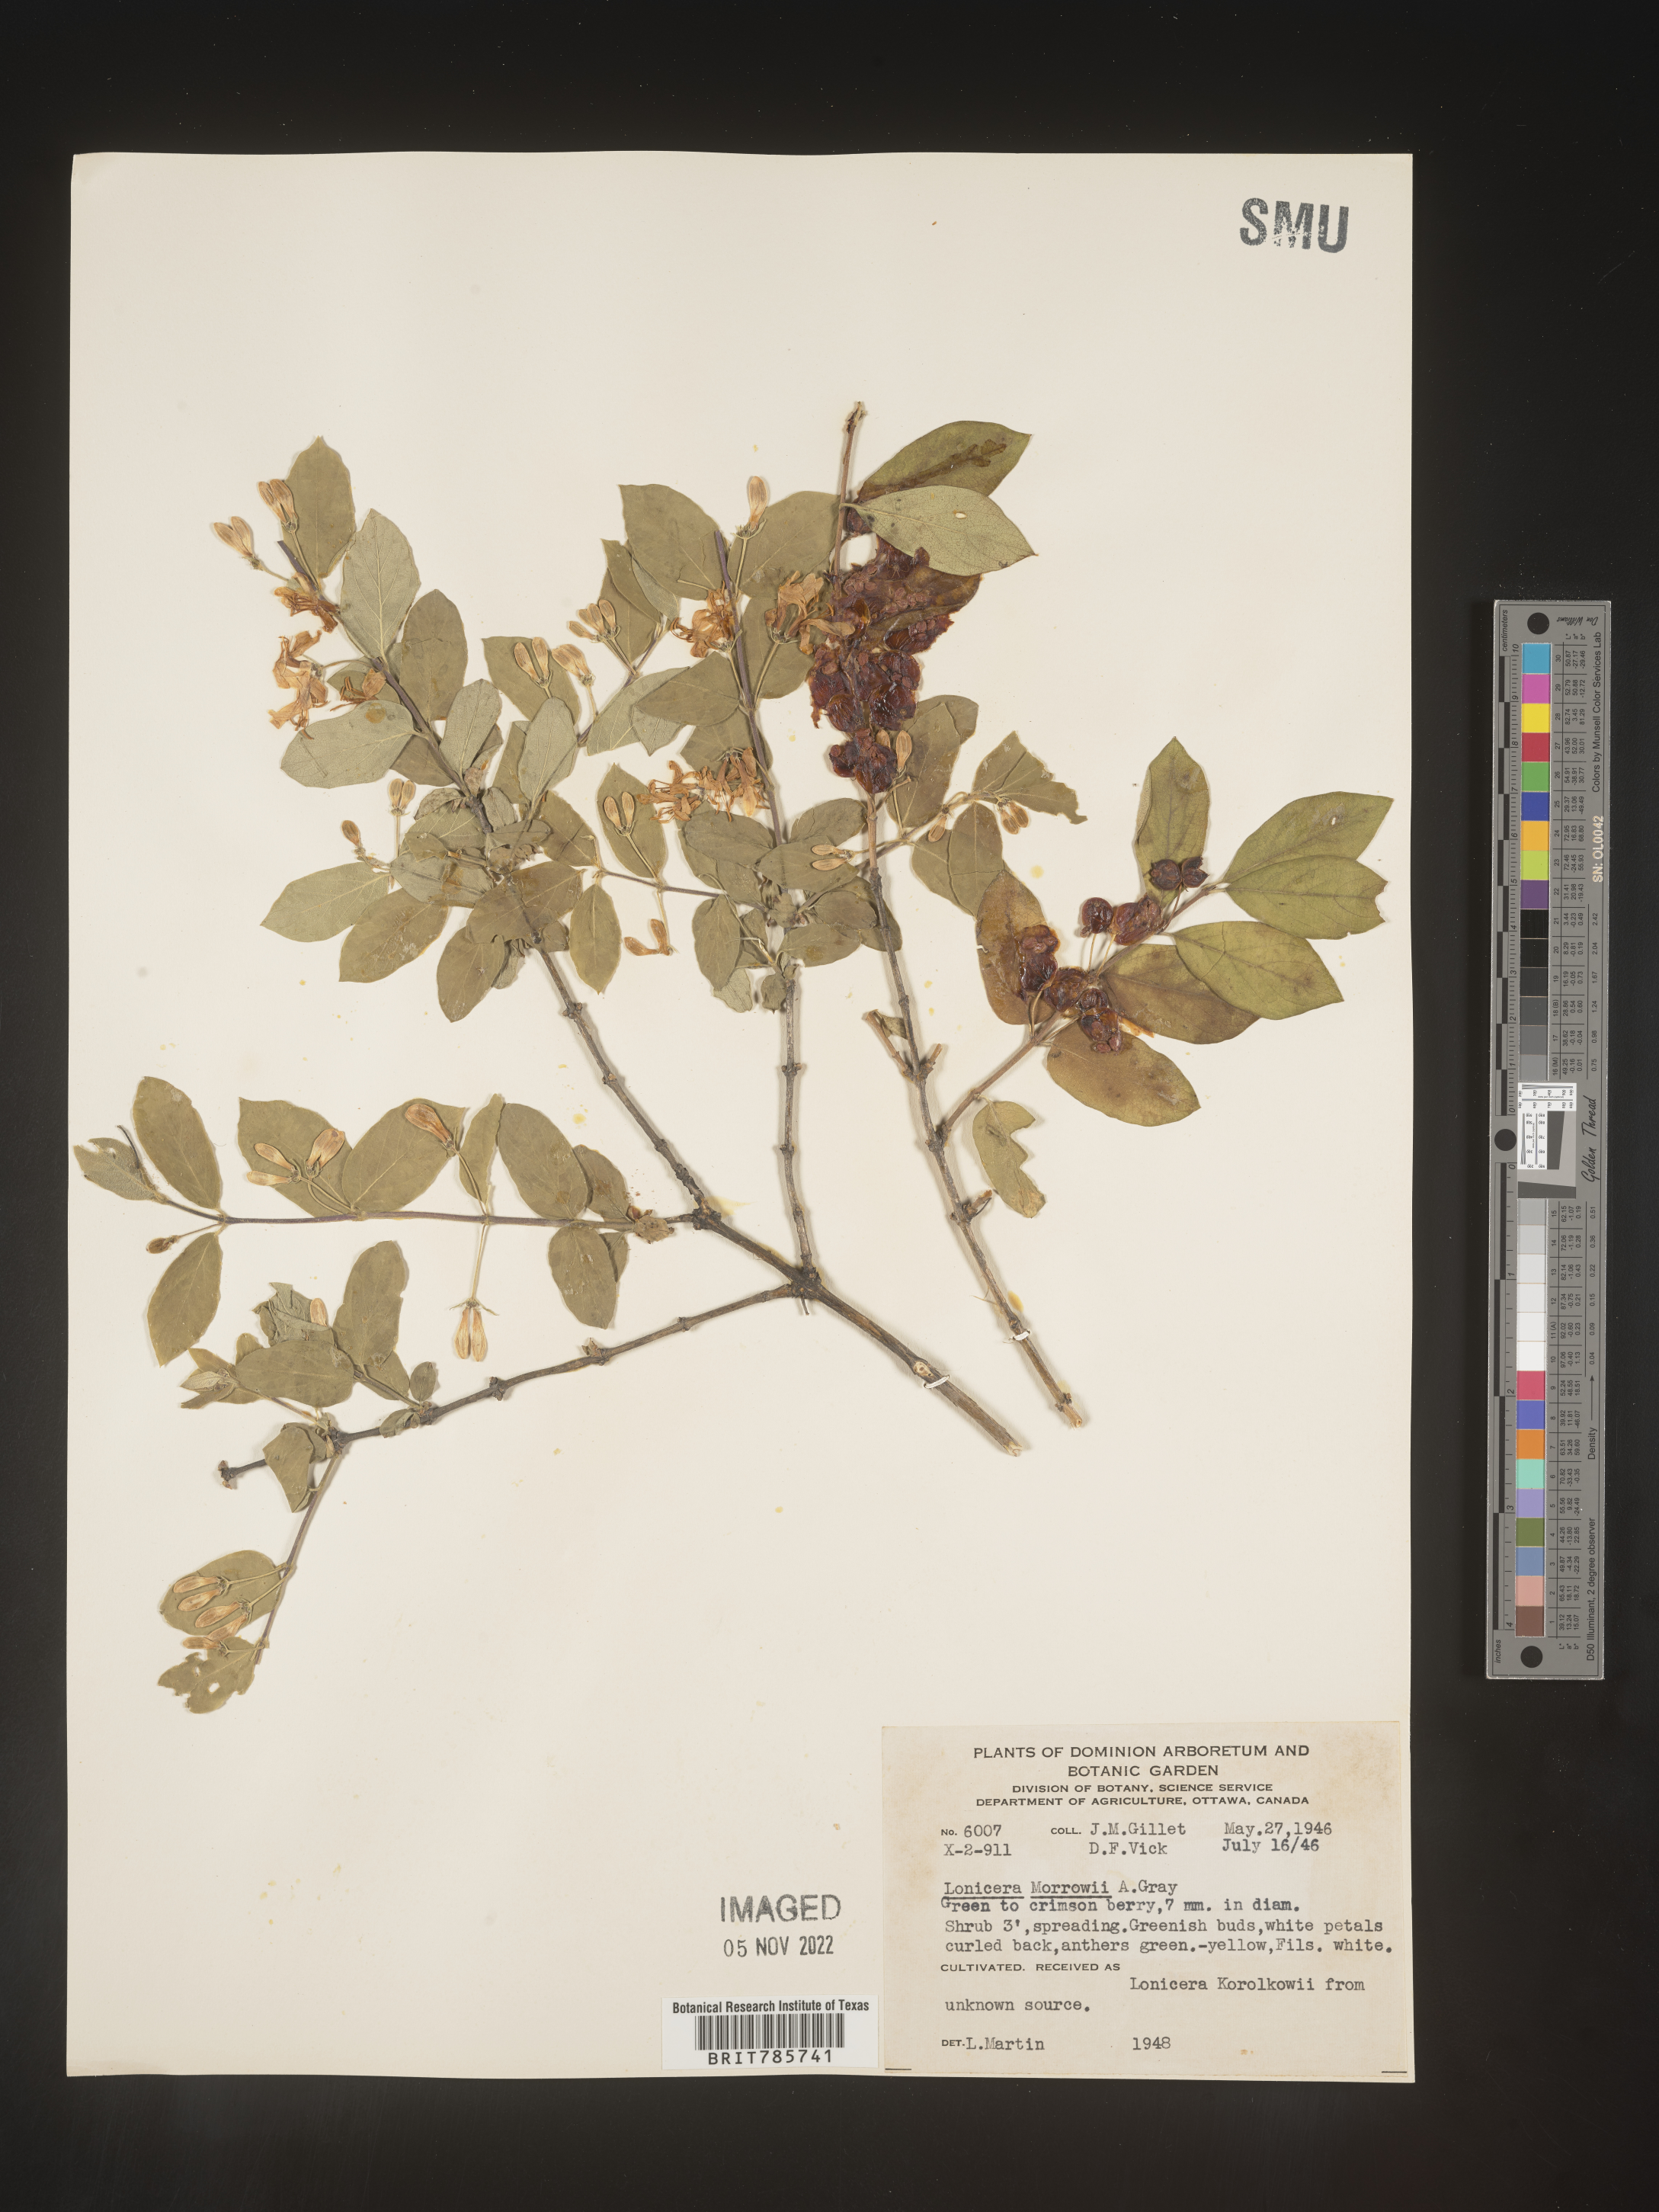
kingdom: Plantae
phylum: Tracheophyta
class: Magnoliopsida
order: Dipsacales
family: Caprifoliaceae
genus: Lonicera
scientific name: Lonicera
